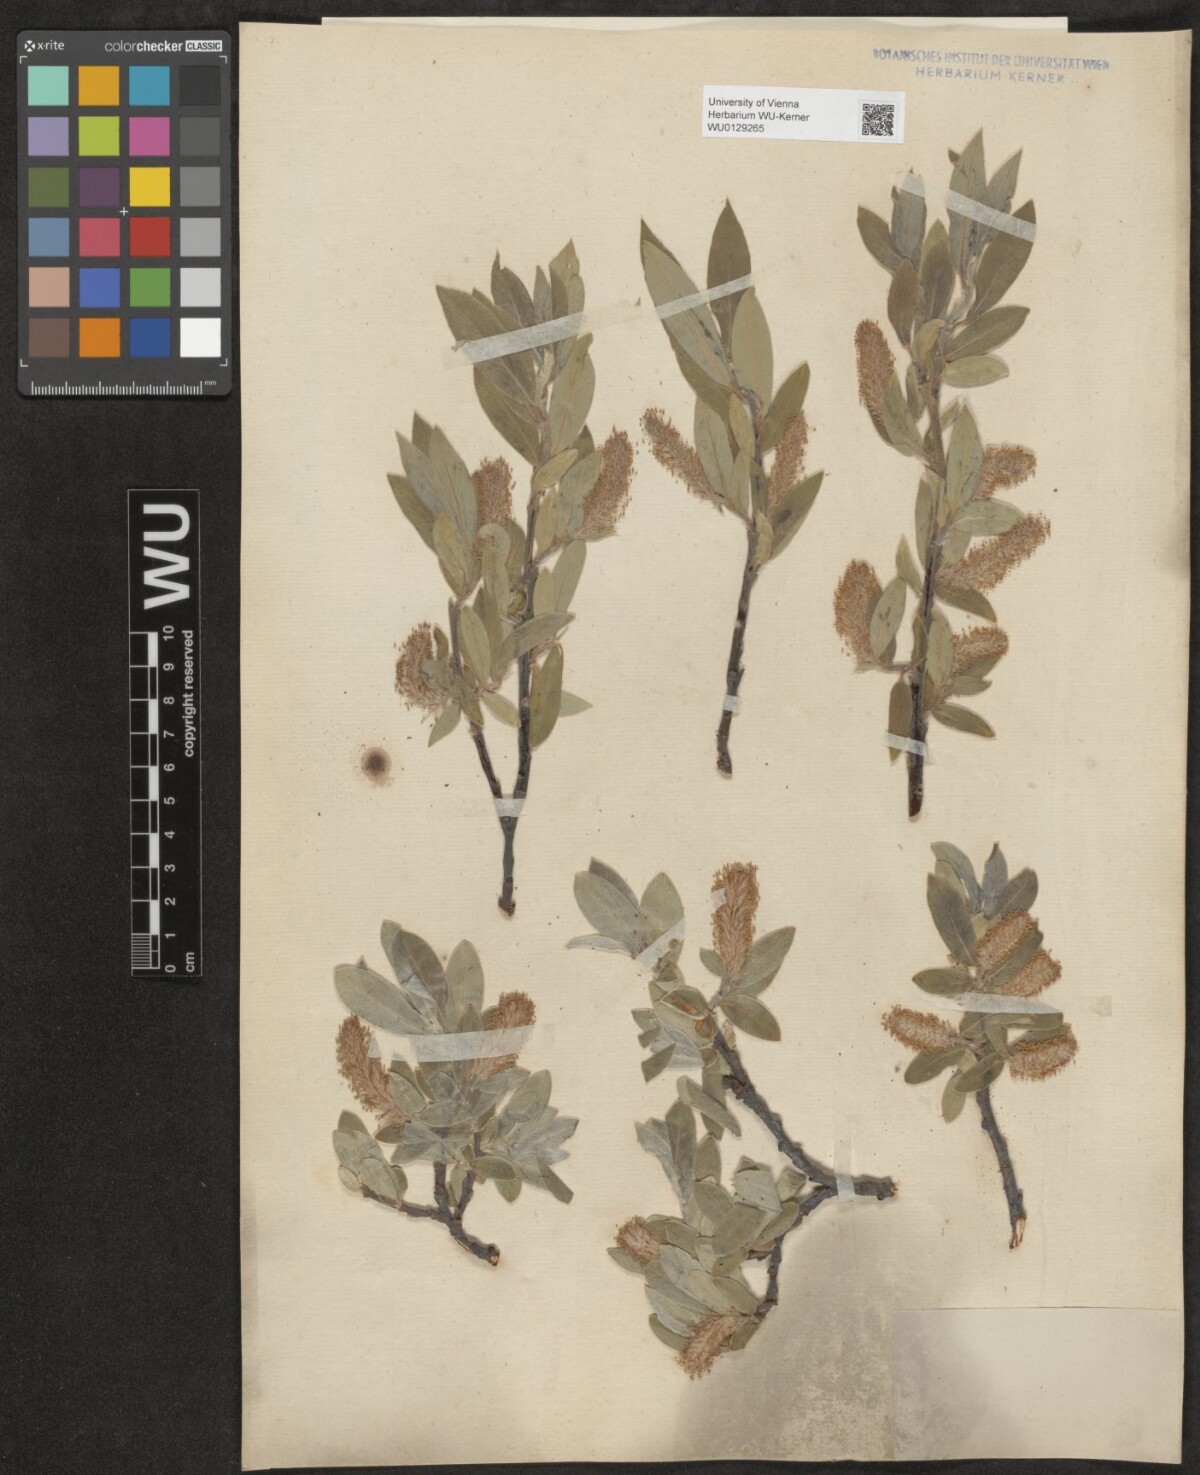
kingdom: Plantae
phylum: Tracheophyta
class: Magnoliopsida
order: Malpighiales
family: Salicaceae
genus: Salix
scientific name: Salix glauca
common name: Glaucous willow
